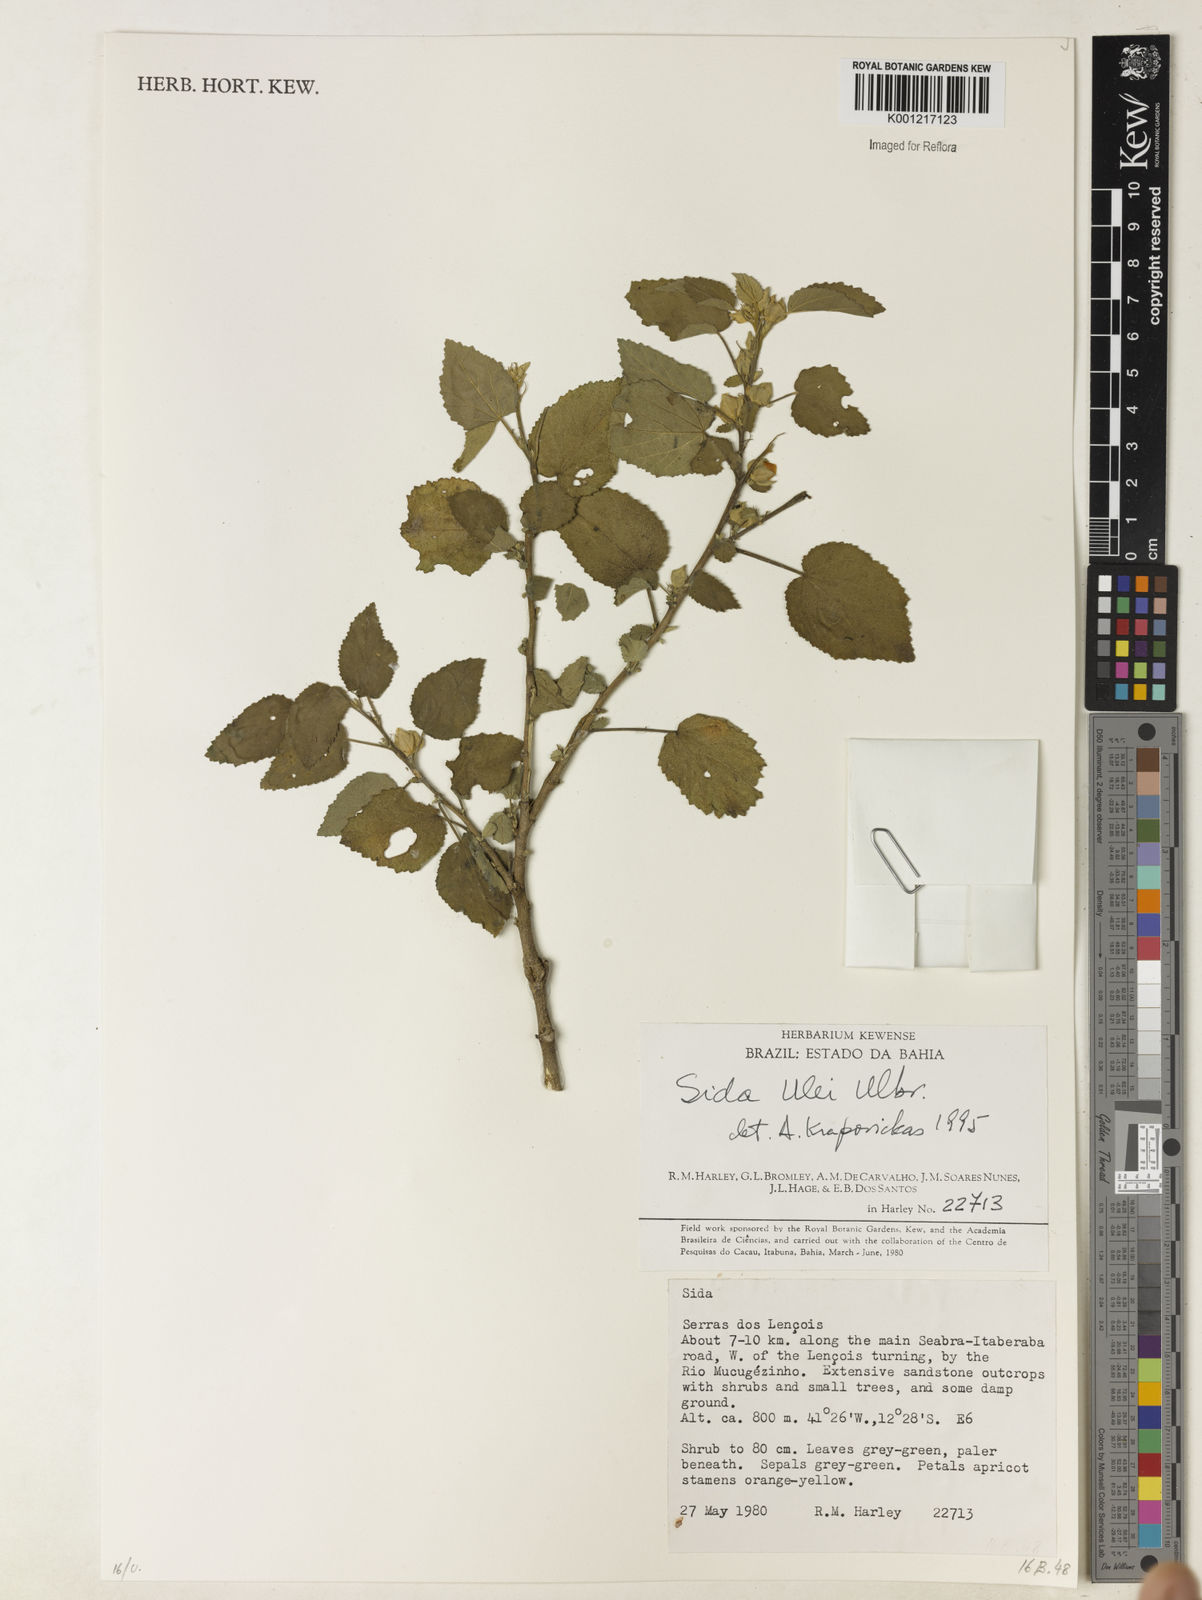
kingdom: Plantae
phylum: Tracheophyta
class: Magnoliopsida
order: Malvales
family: Malvaceae
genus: Sida
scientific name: Sida ulei
